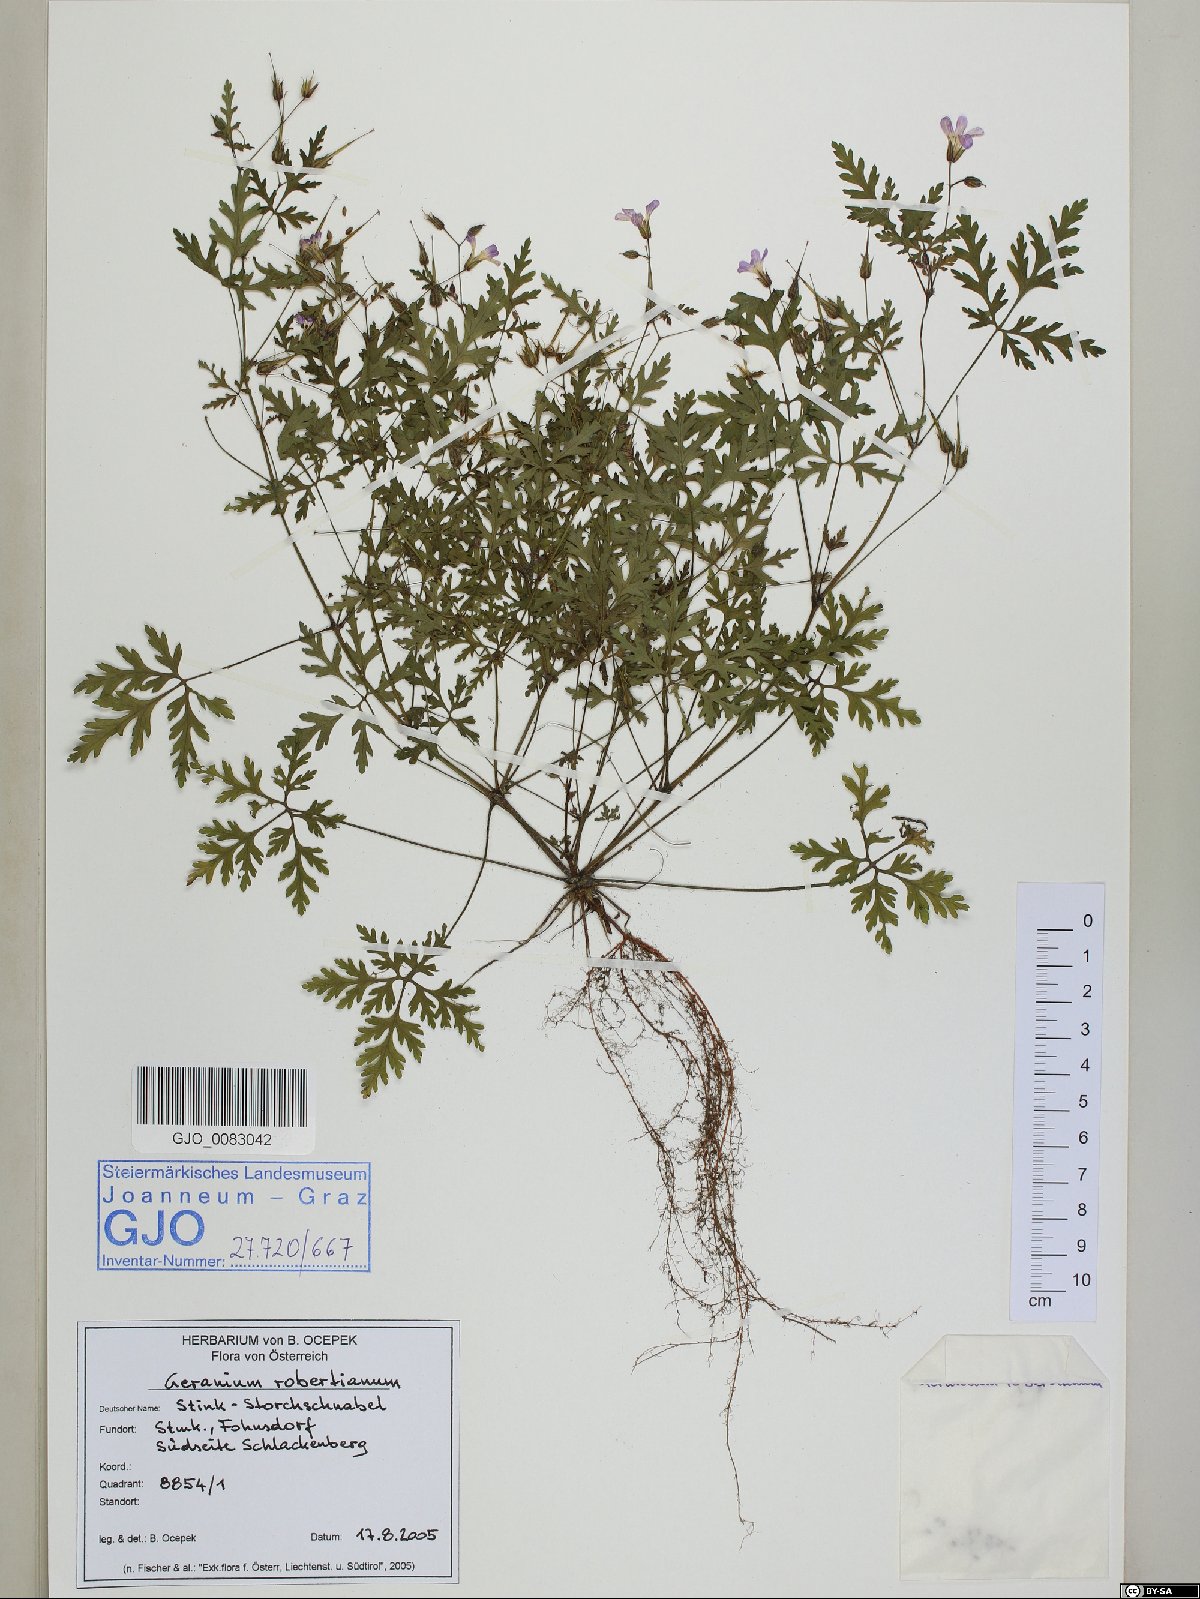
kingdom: Plantae
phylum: Tracheophyta
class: Magnoliopsida
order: Geraniales
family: Geraniaceae
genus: Geranium
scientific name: Geranium robertianum
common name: Herb-robert
